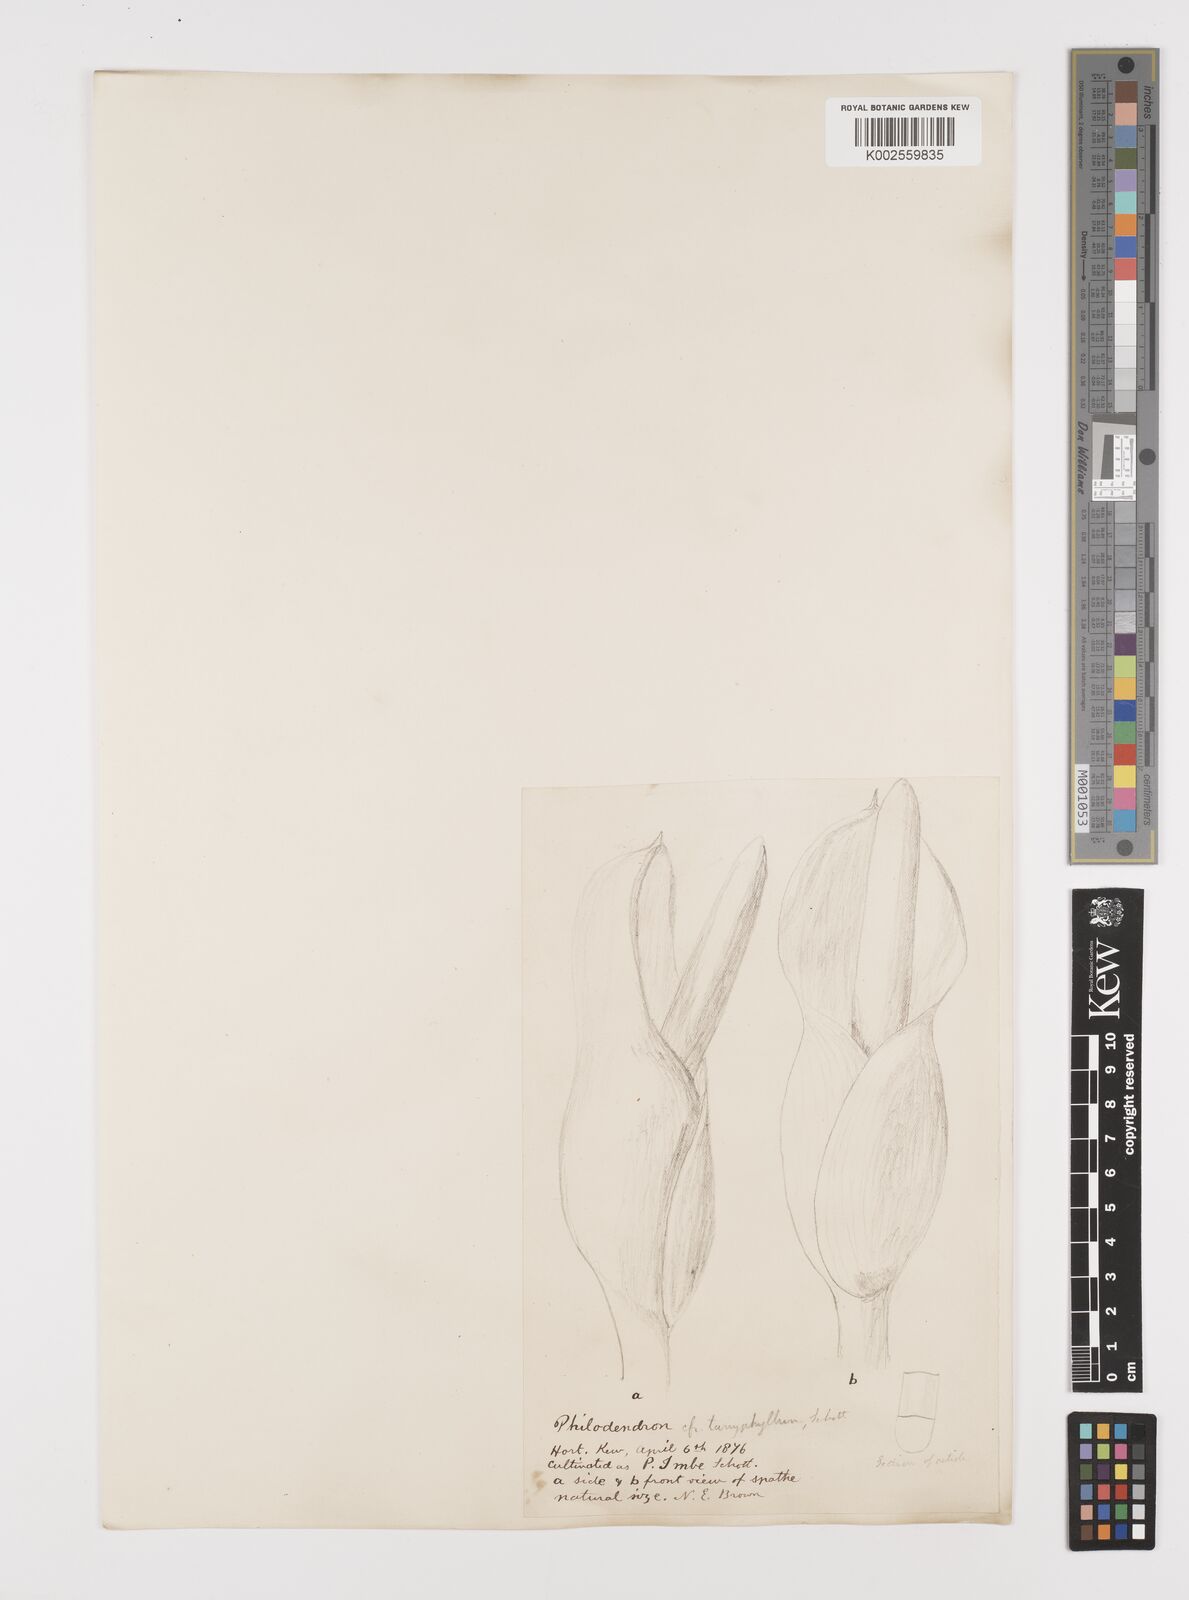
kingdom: Plantae
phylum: Tracheophyta
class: Liliopsida
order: Alismatales
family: Araceae
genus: Philodendron
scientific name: Philodendron sagittifolium
